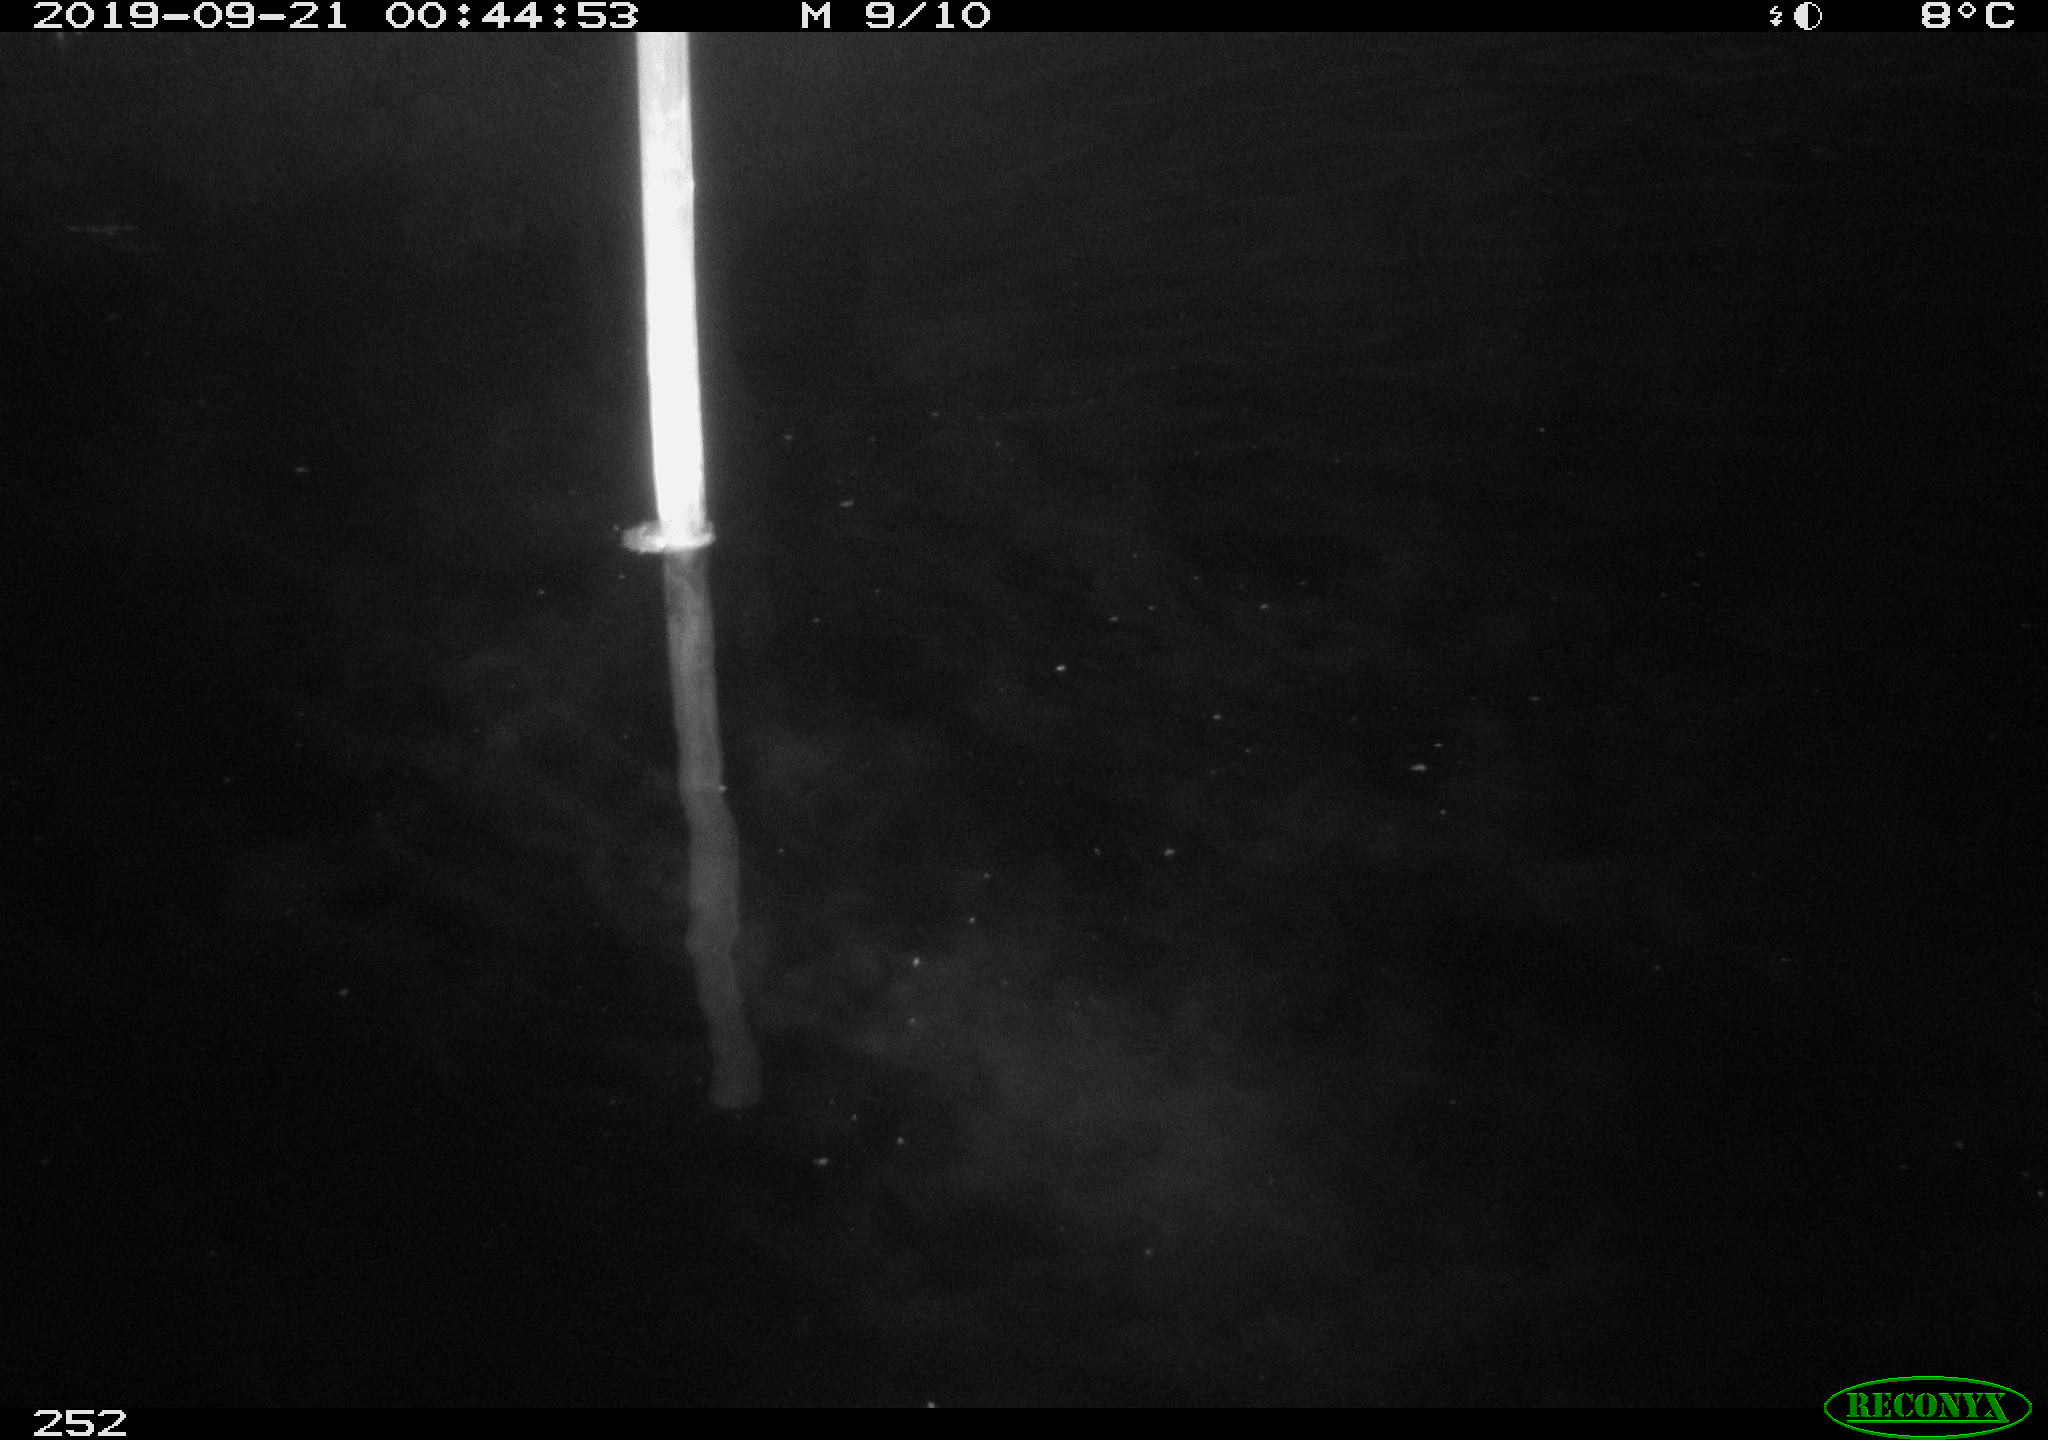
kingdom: Animalia
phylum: Chordata
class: Aves
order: Anseriformes
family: Anatidae
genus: Anas
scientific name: Anas platyrhynchos
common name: Mallard
